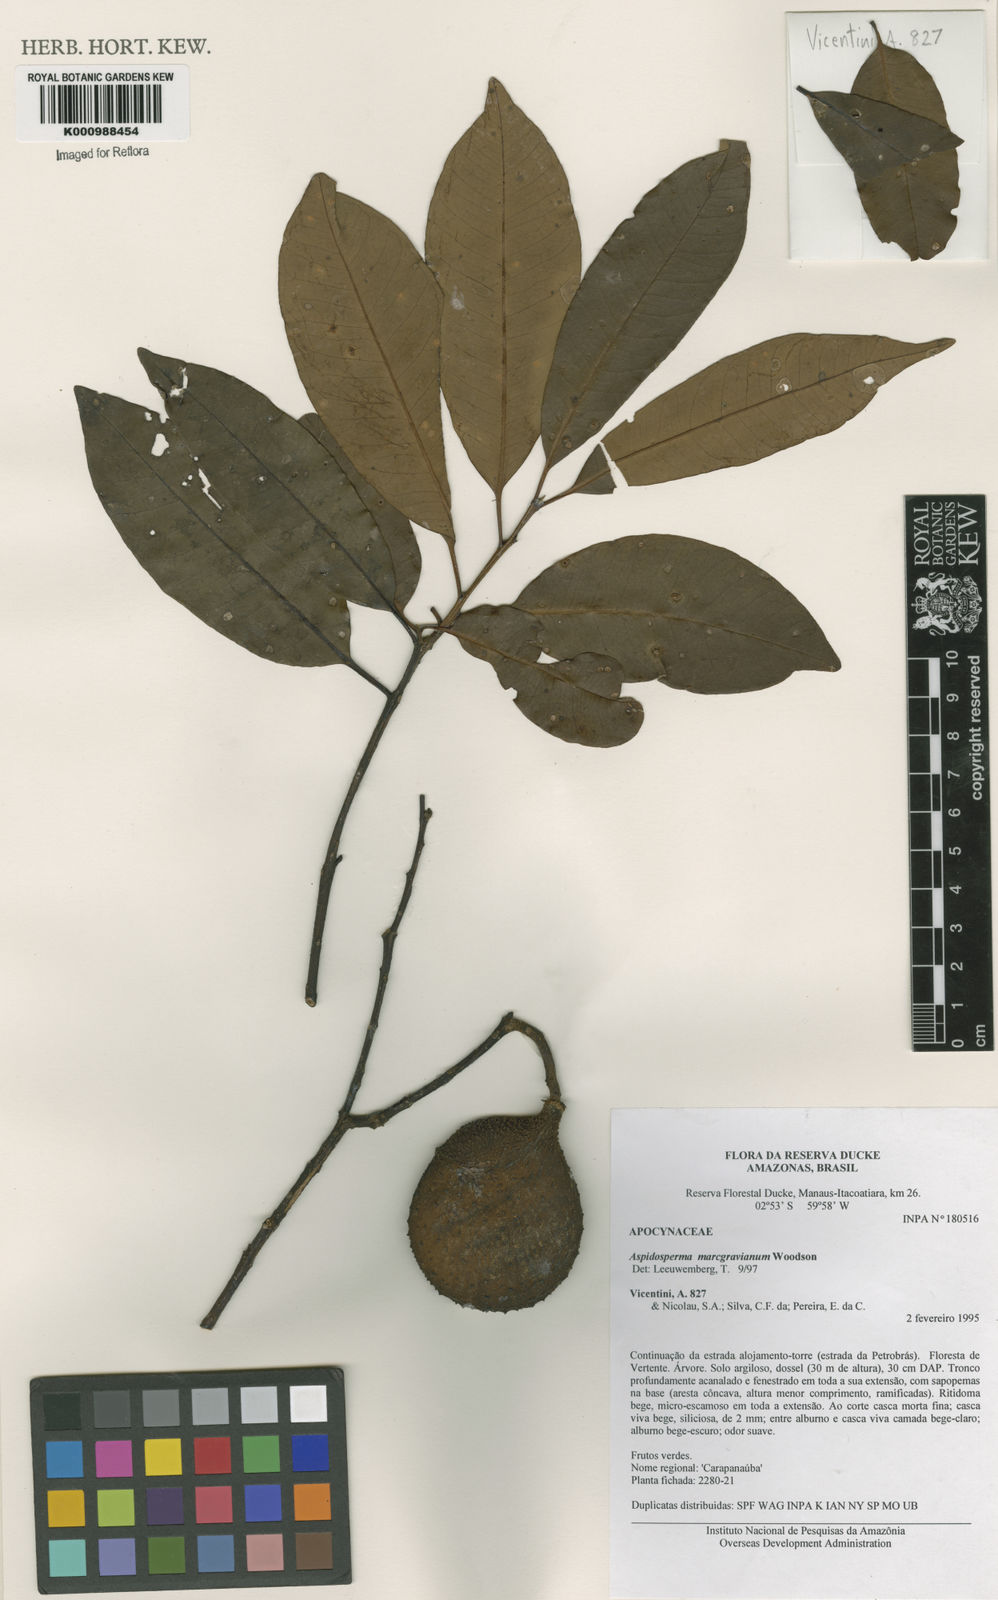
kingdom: Plantae
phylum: Tracheophyta
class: Magnoliopsida
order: Gentianales
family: Apocynaceae
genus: Aspidosperma
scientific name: Aspidosperma excelsum
